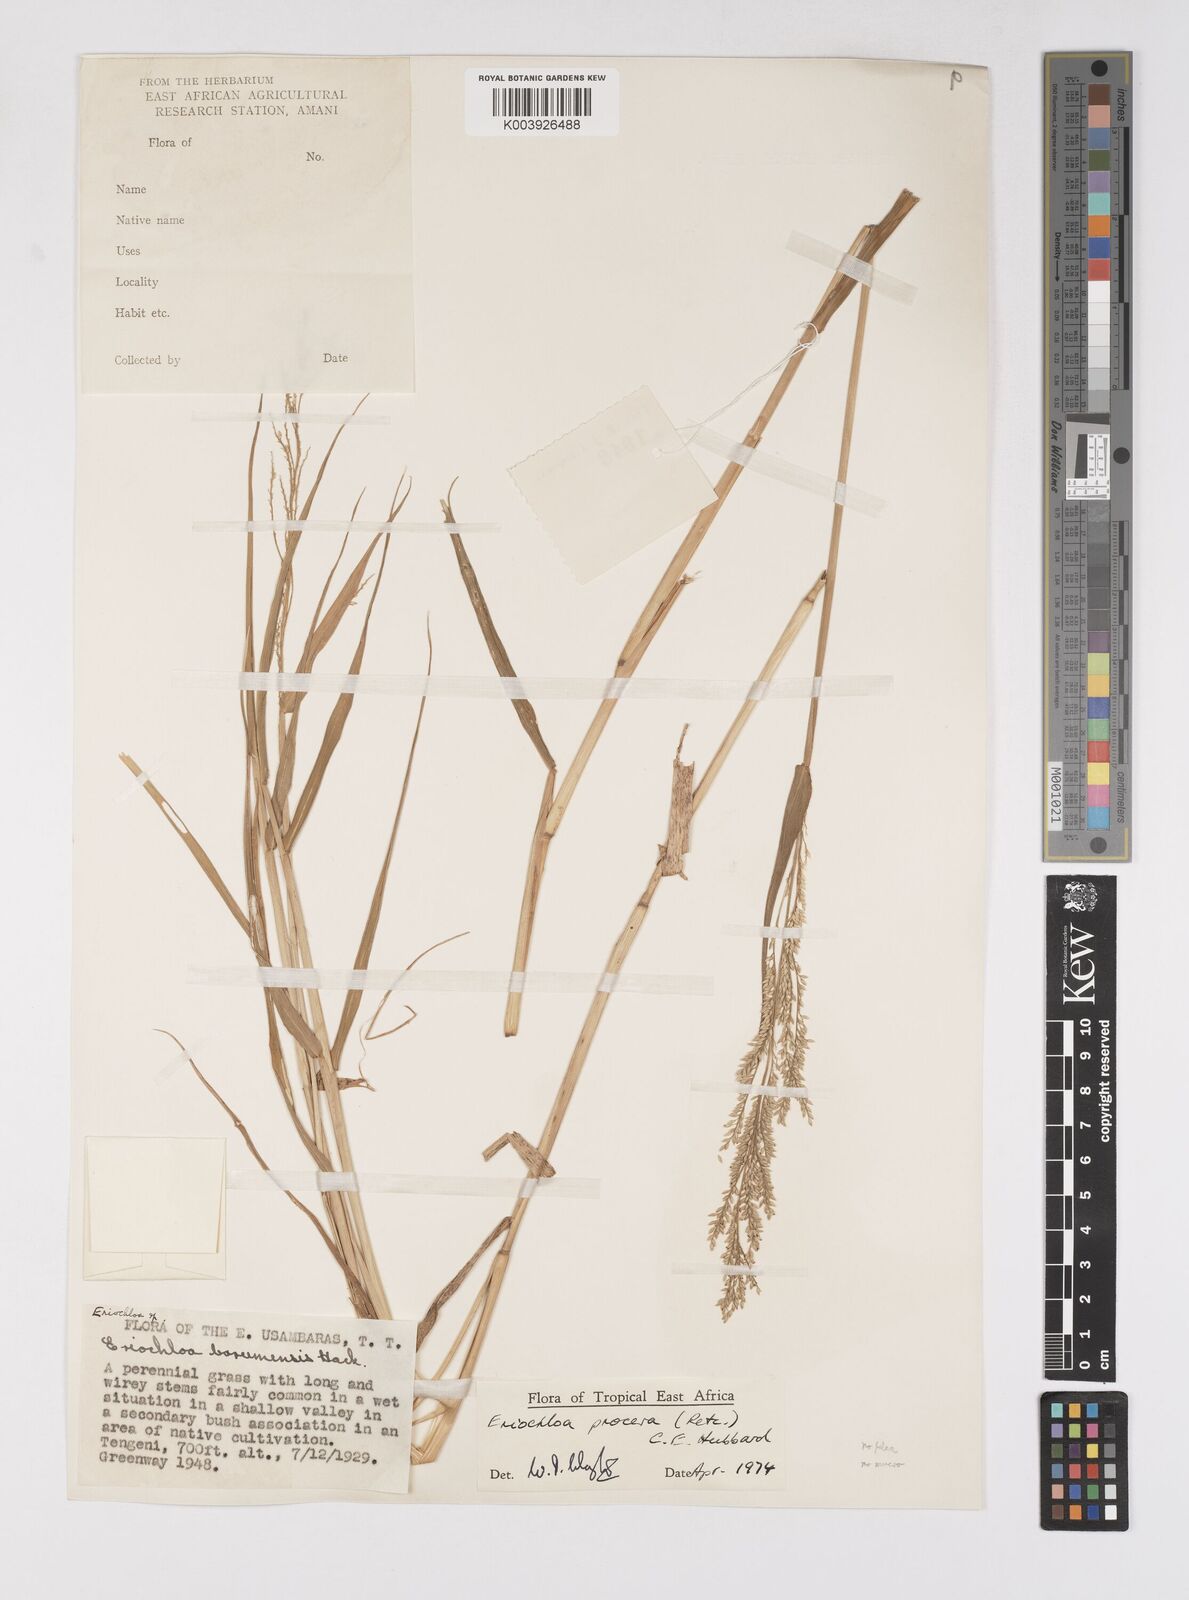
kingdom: Plantae
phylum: Tracheophyta
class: Liliopsida
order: Poales
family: Poaceae
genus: Eriochloa
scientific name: Eriochloa procera
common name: Spring grass
